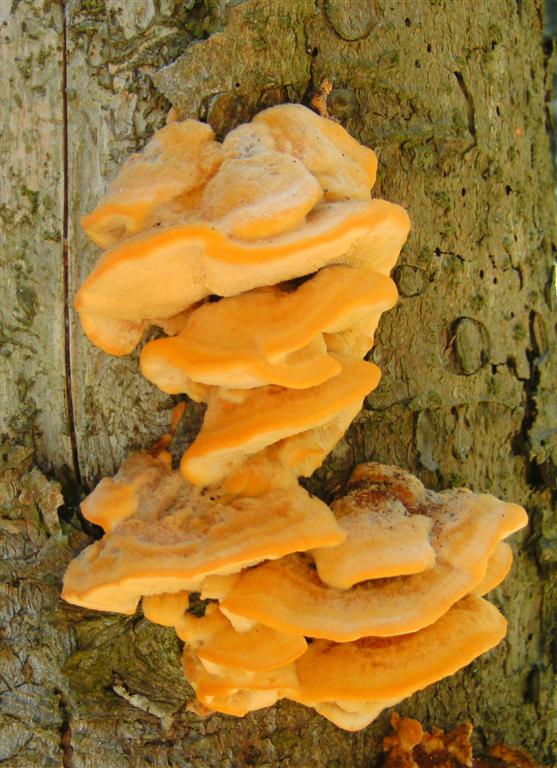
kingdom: Fungi
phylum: Basidiomycota
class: Agaricomycetes
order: Polyporales
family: Pycnoporellaceae
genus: Pycnoporellus
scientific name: Pycnoporellus fulgens
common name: flammeporesvamp
